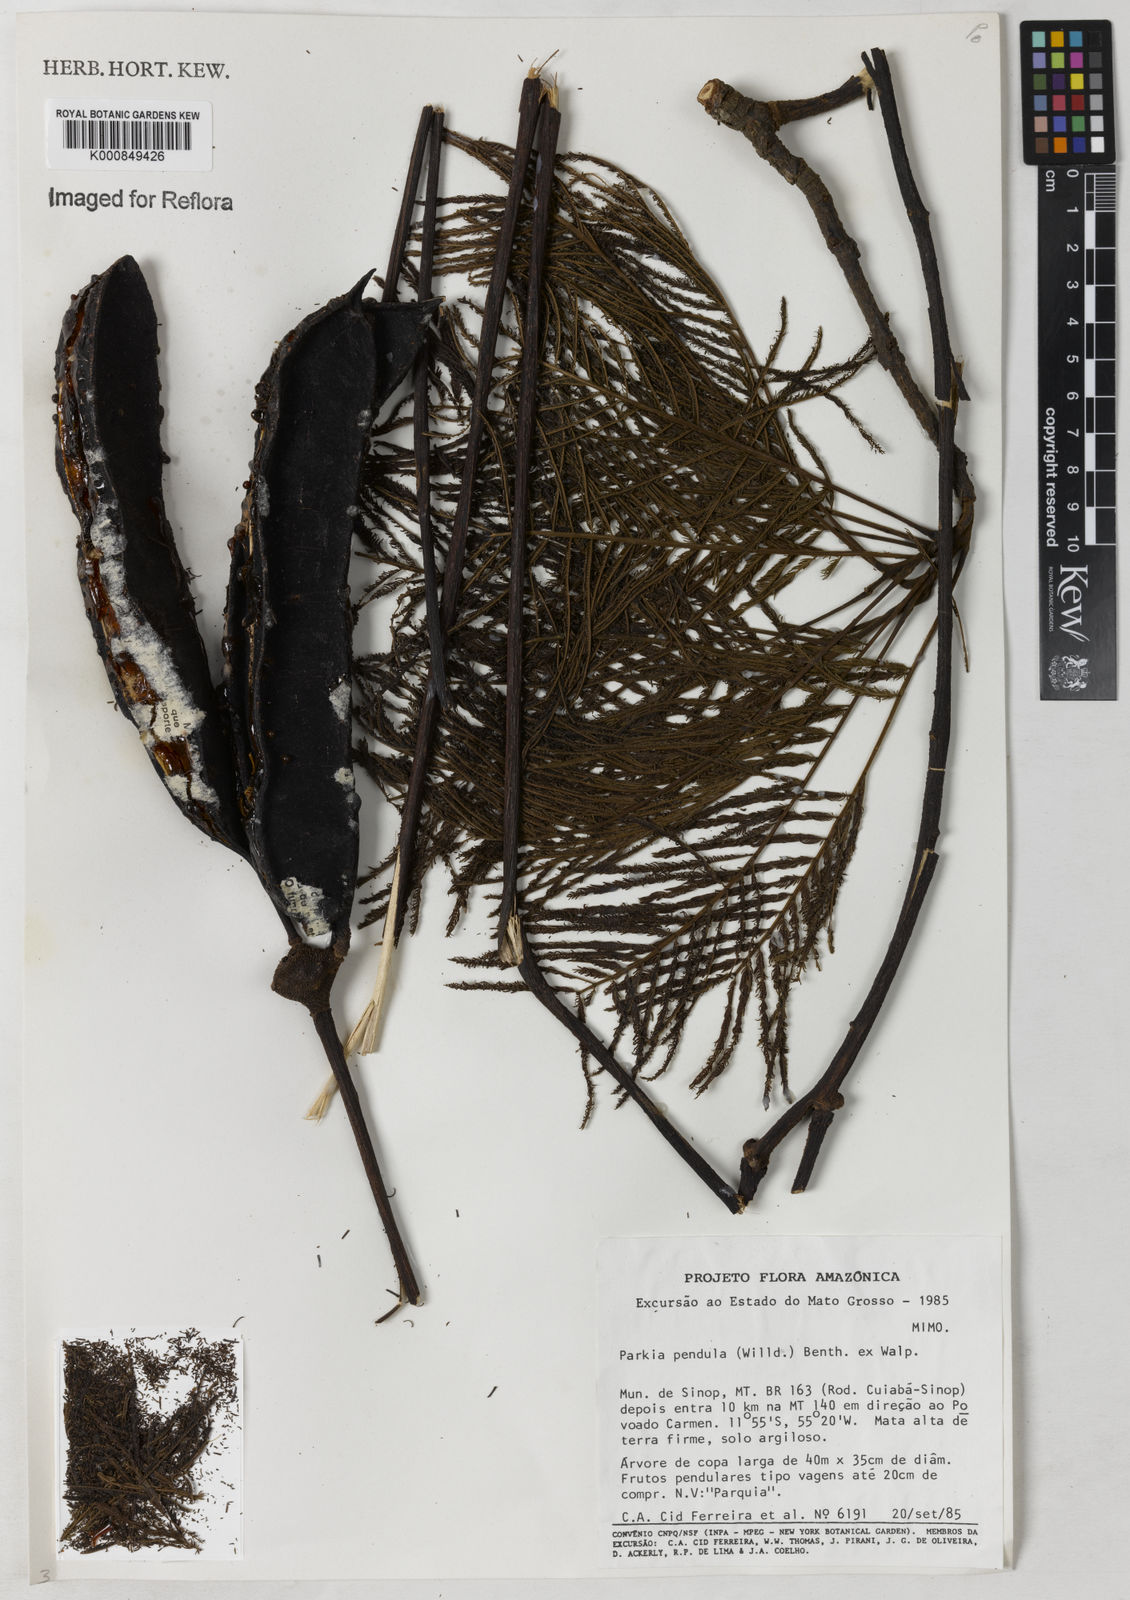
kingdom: Plantae
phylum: Tracheophyta
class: Magnoliopsida
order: Fabales
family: Fabaceae
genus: Parkia
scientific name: Parkia
